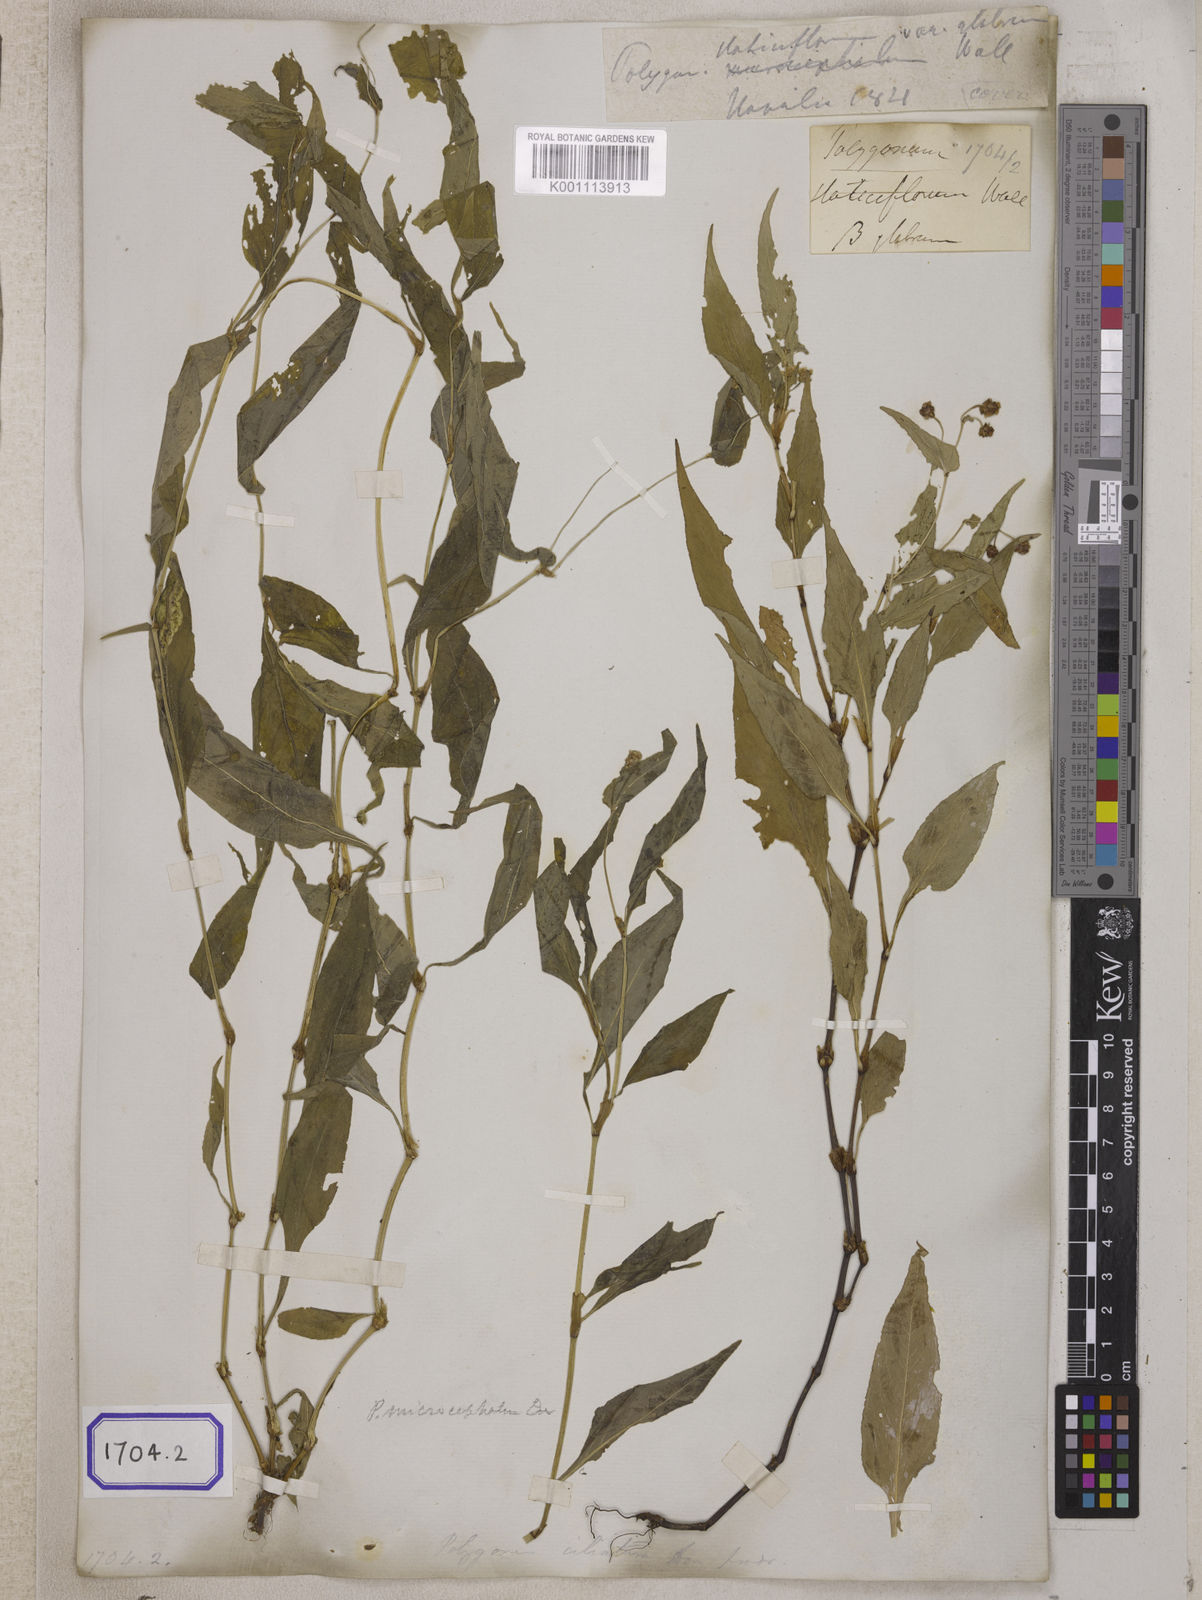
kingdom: Plantae
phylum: Tracheophyta
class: Magnoliopsida
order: Caryophyllales
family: Polygonaceae
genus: Persicaria
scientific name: Persicaria microcephala
